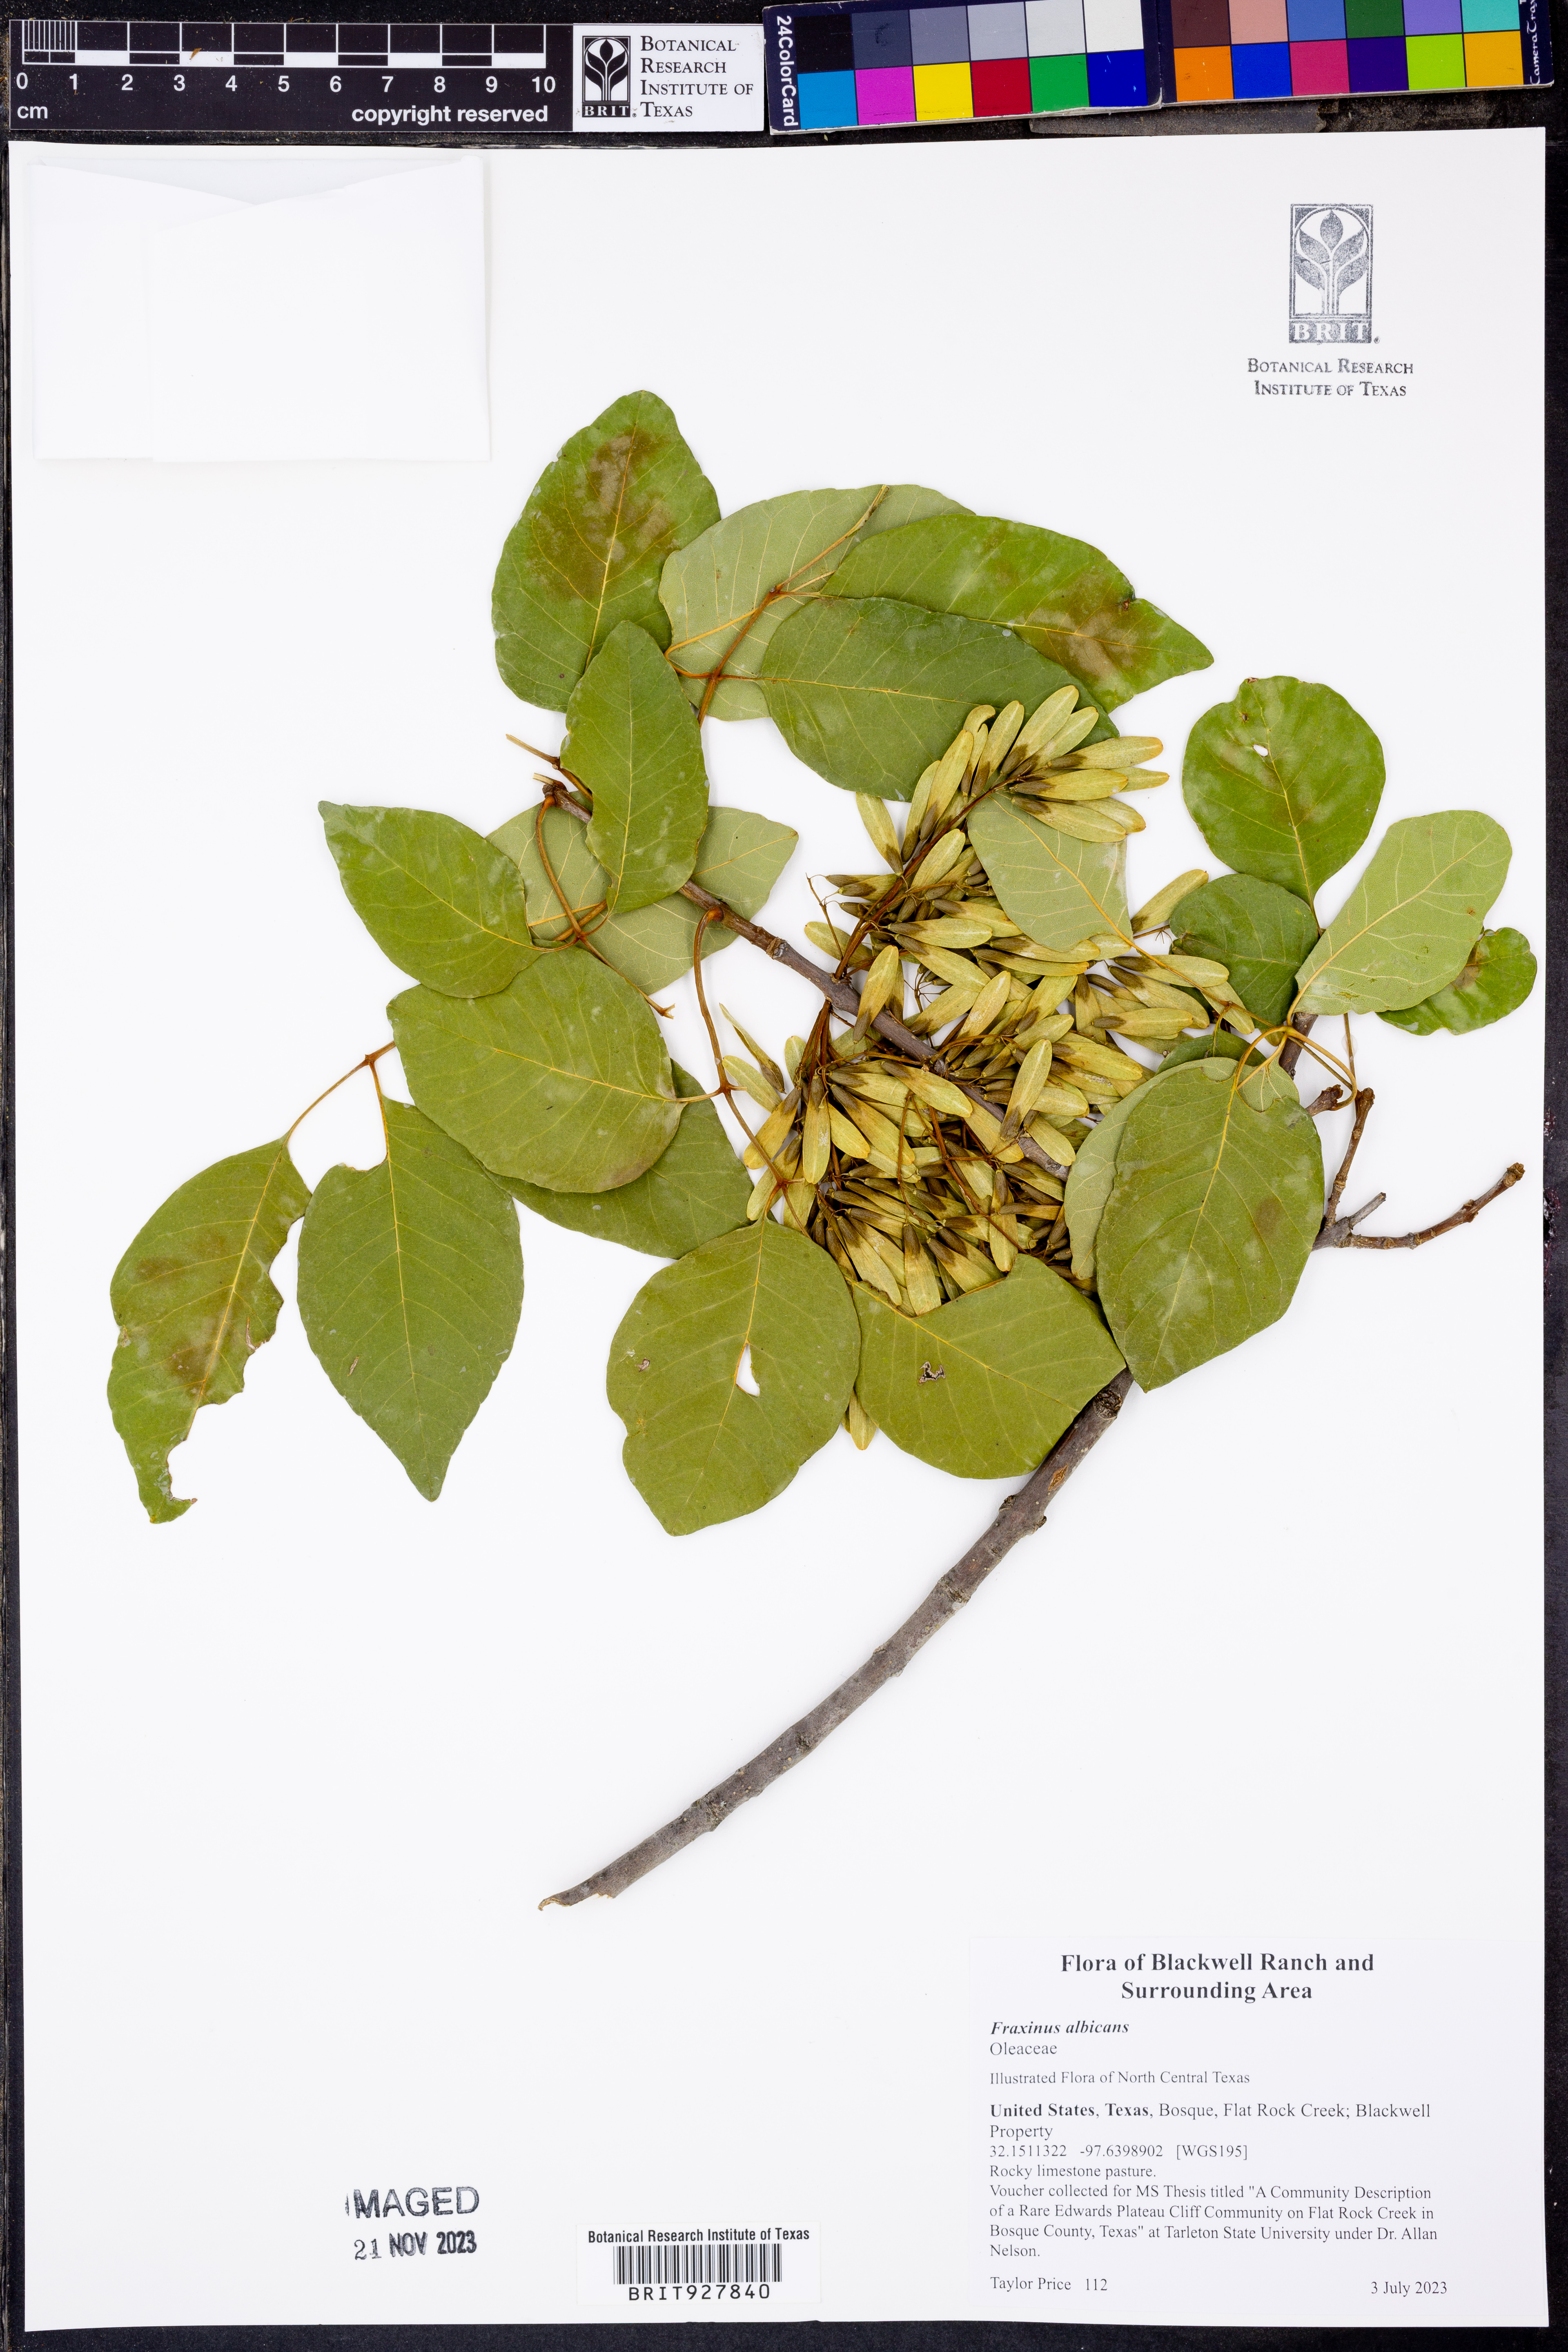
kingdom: Plantae
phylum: Tracheophyta
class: Magnoliopsida
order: Lamiales
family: Oleaceae
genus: Fraxinus
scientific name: Fraxinus albicans
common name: Texas ash
